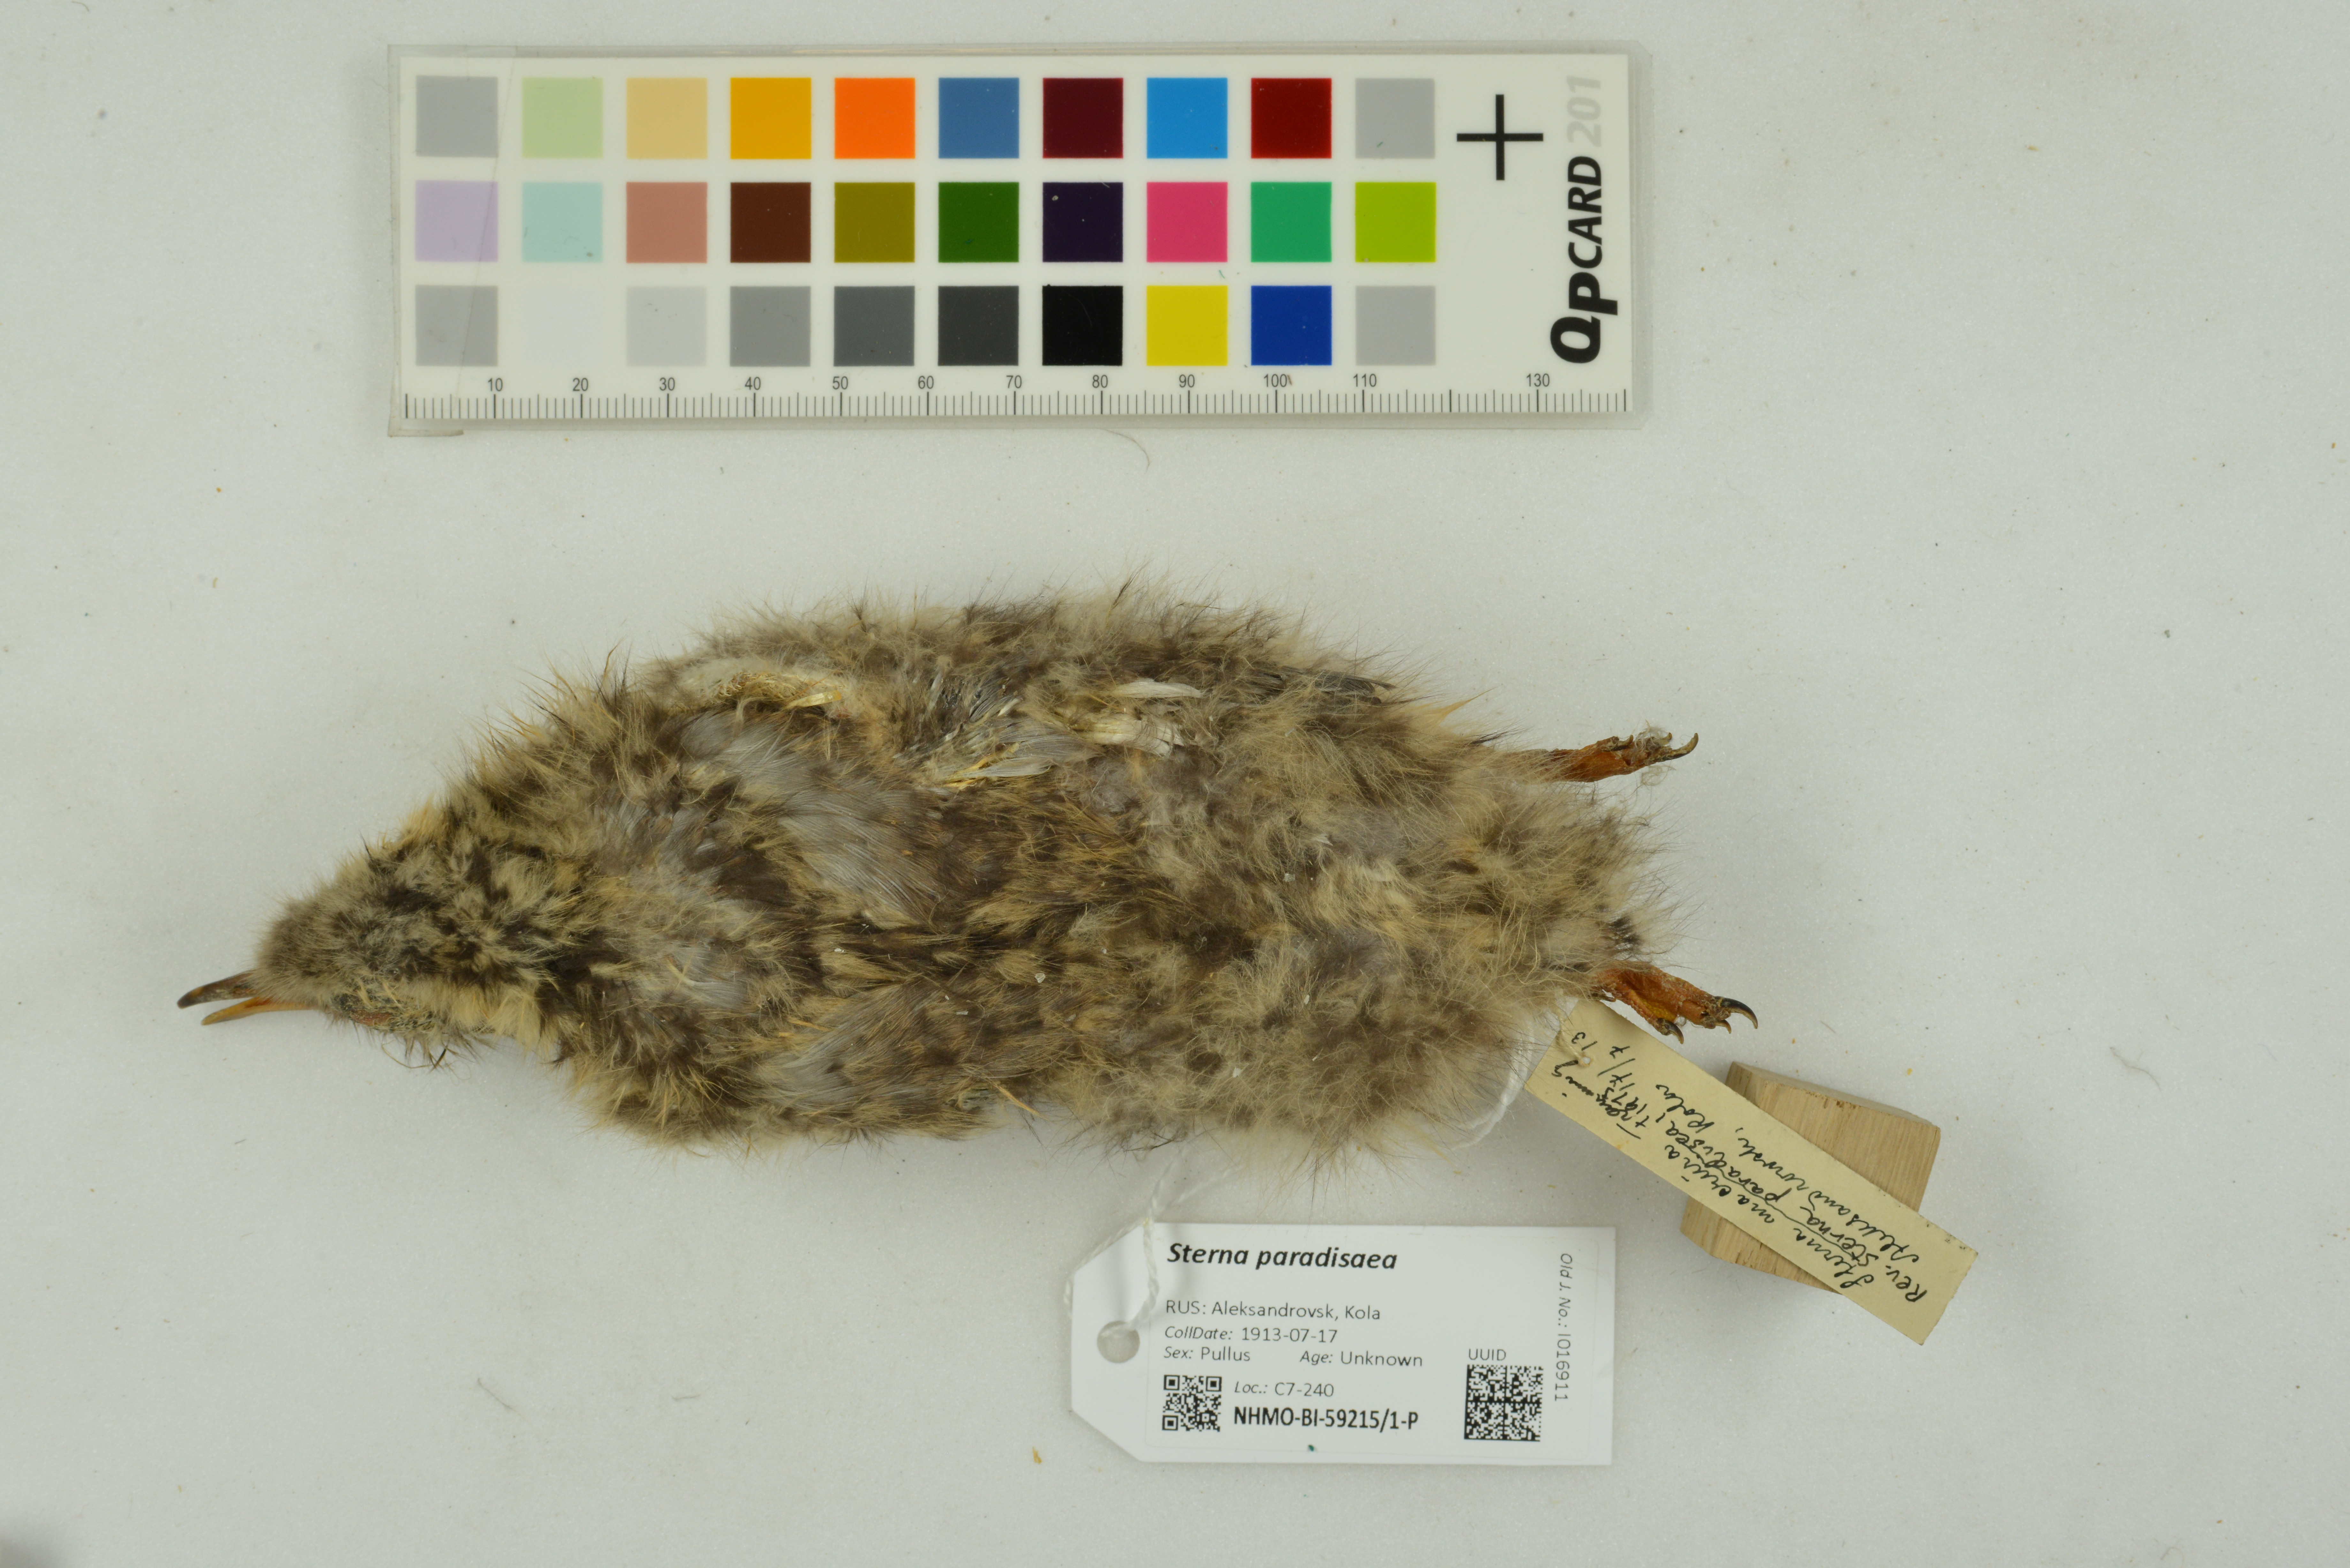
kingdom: Animalia
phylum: Chordata
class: Aves
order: Charadriiformes
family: Laridae
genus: Sterna
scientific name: Sterna paradisaea
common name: Arctic tern
